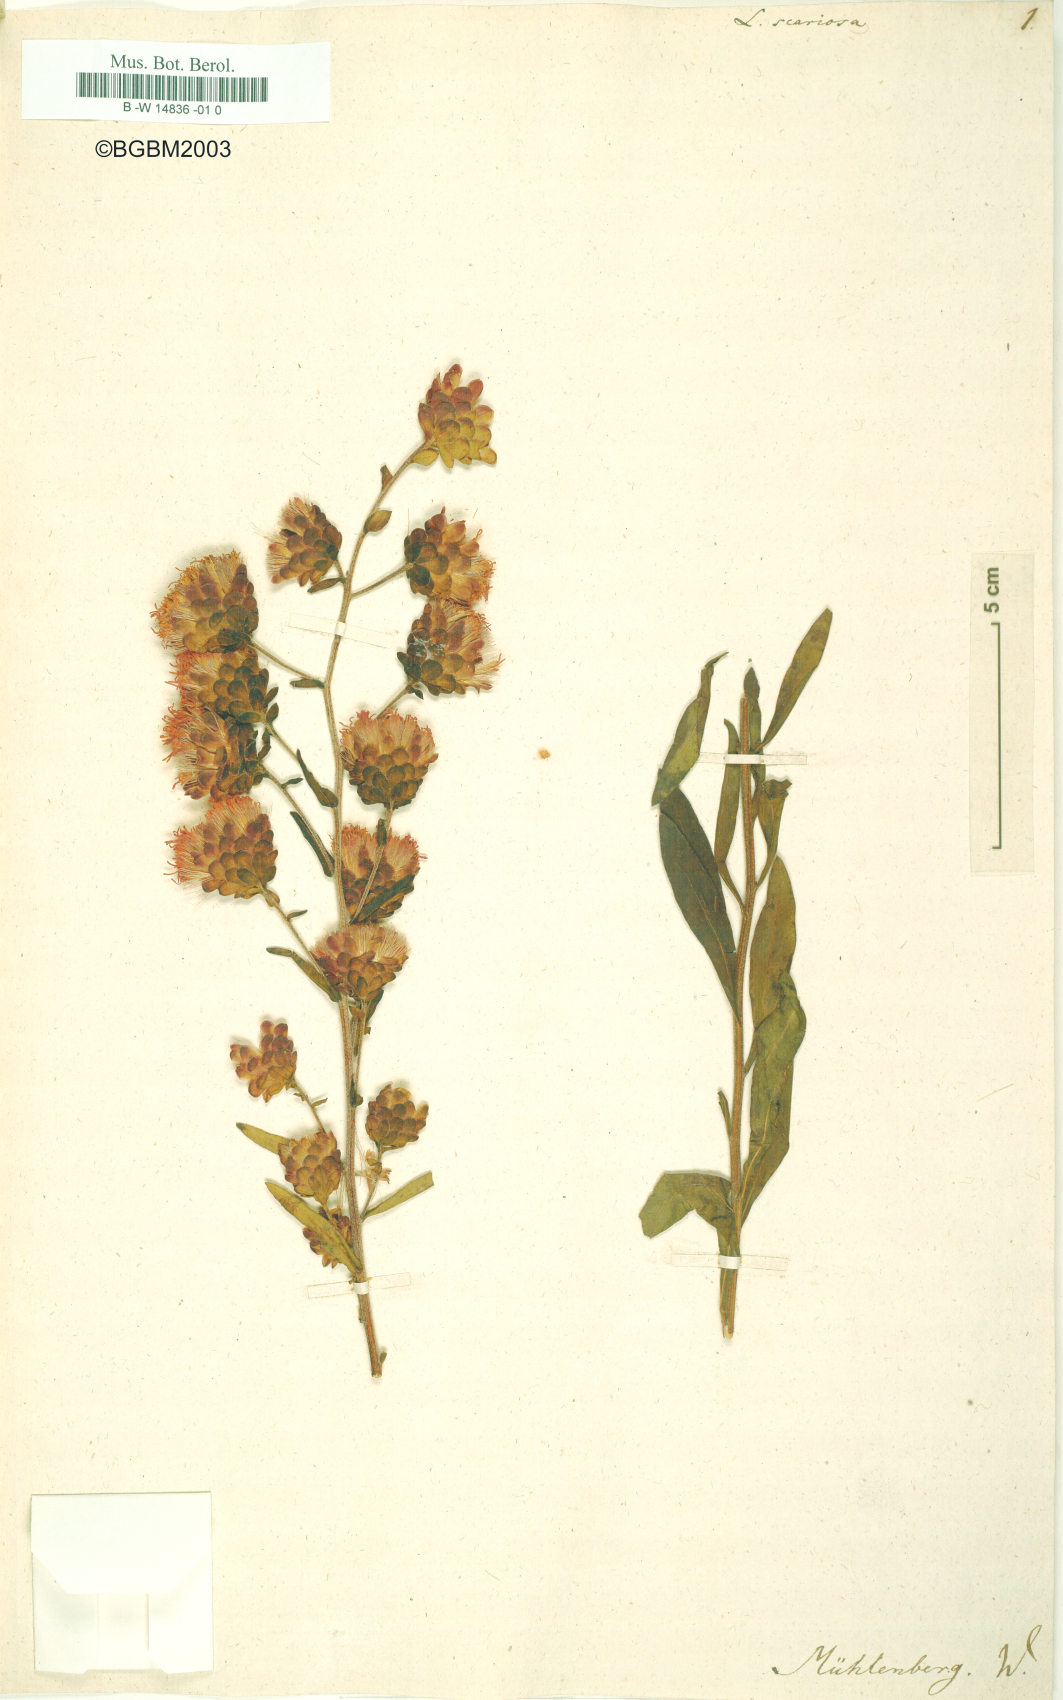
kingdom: Plantae
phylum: Tracheophyta
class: Magnoliopsida
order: Asterales
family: Asteraceae
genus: Liatris
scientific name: Liatris scariosa
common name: Northern gayfeather
